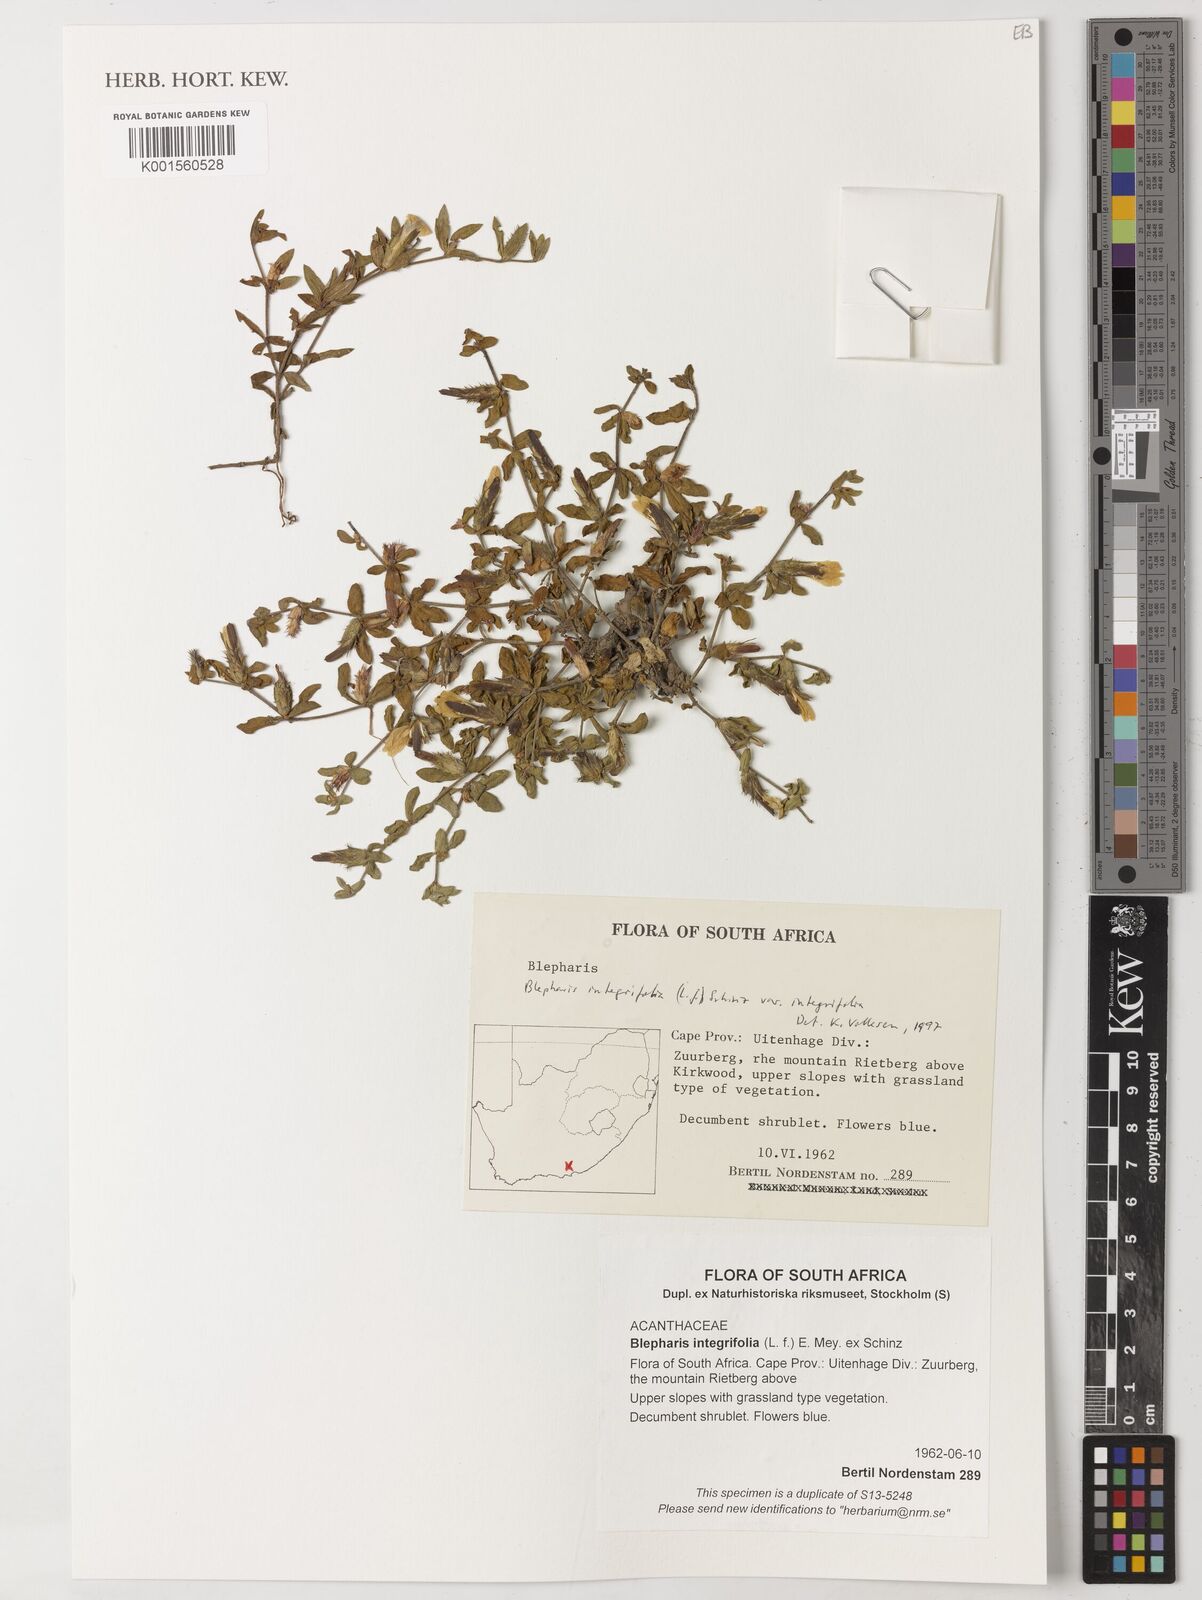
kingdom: Plantae
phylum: Tracheophyta
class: Magnoliopsida
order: Lamiales
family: Acanthaceae
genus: Blepharis
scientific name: Blepharis integrifolia
